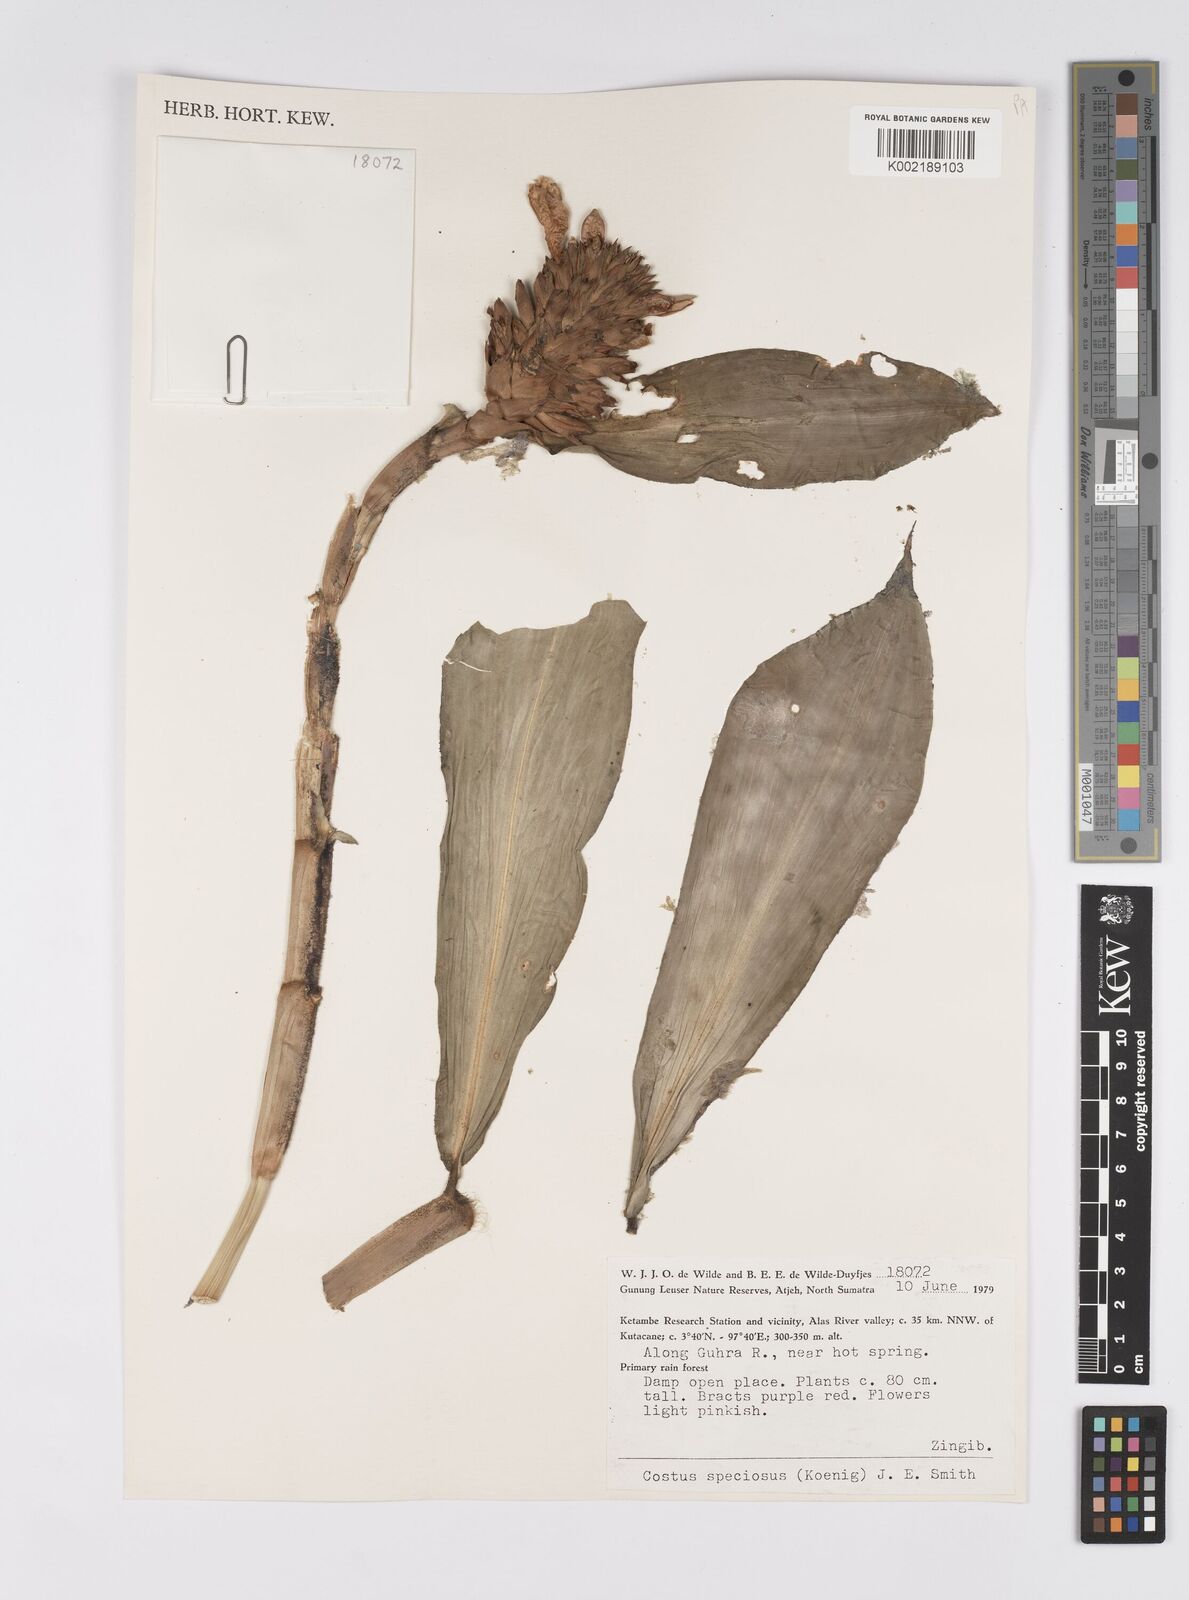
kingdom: Plantae
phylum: Tracheophyta
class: Liliopsida
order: Zingiberales
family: Costaceae
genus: Hellenia
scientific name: Hellenia speciosa
